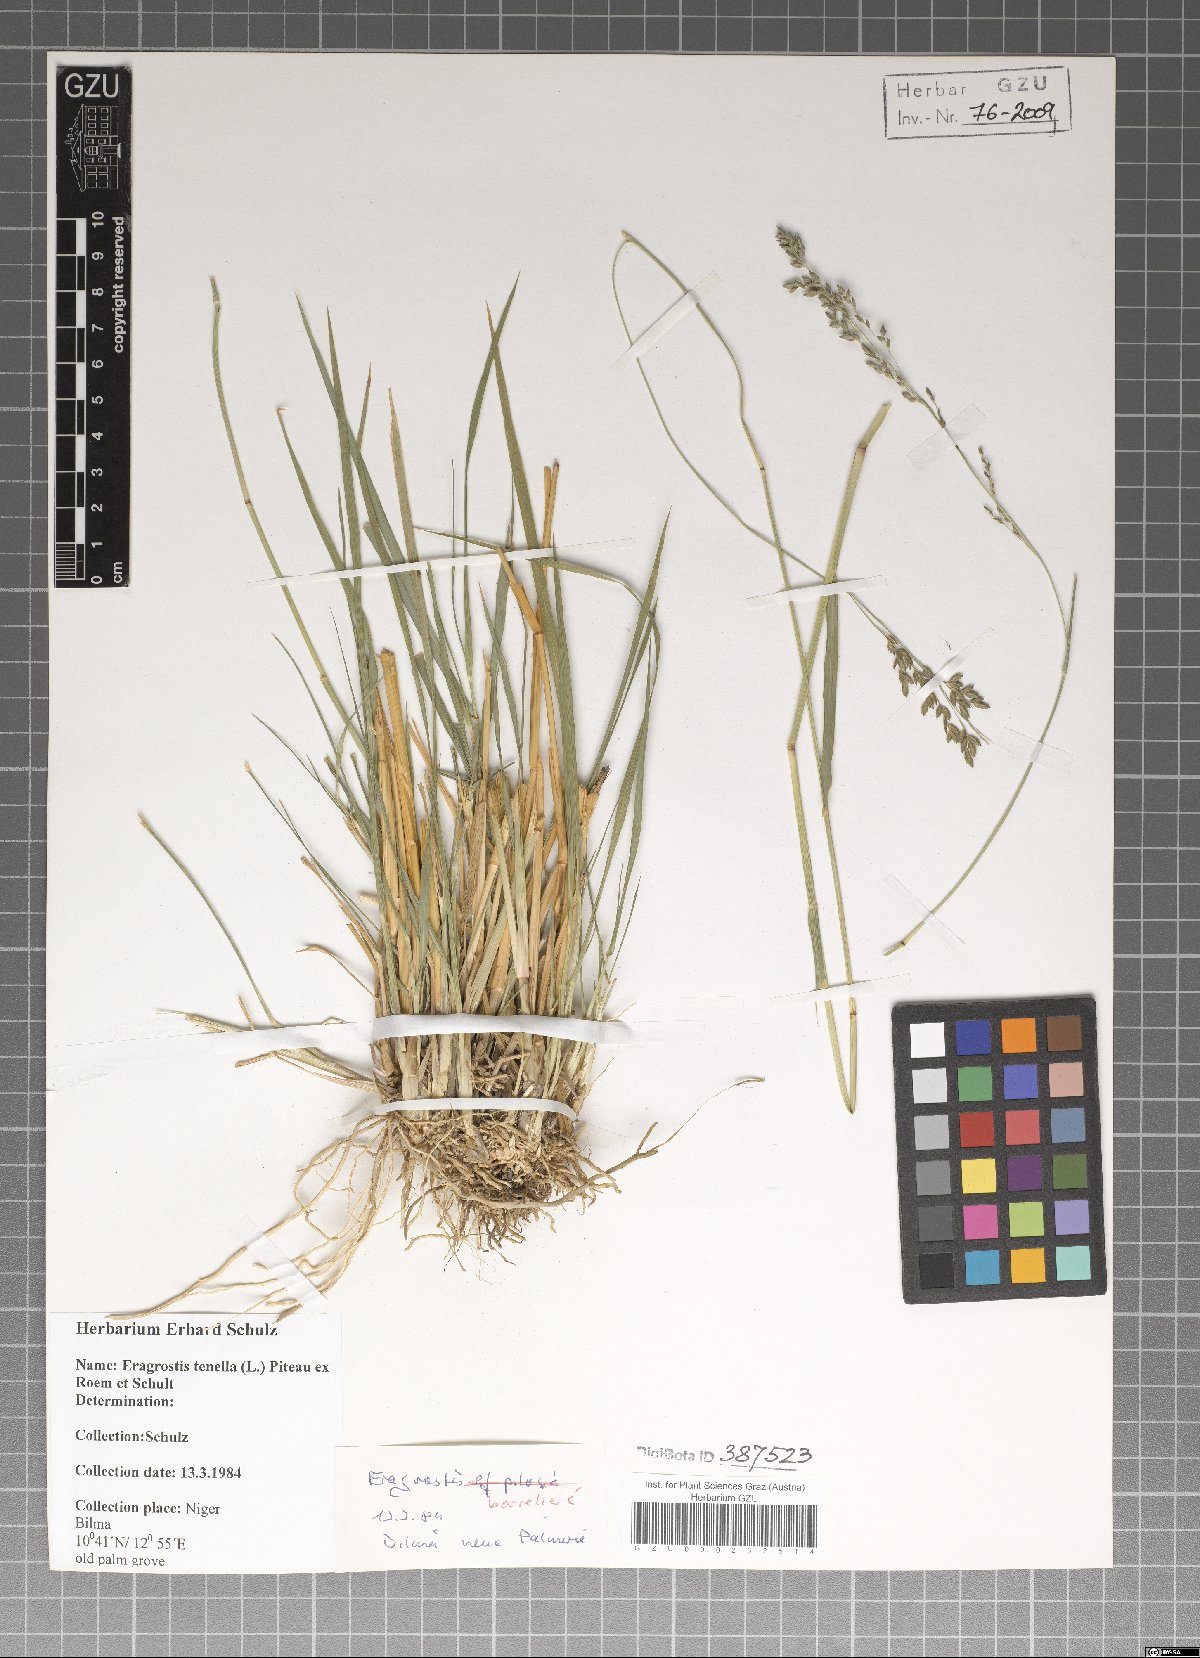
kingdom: Plantae
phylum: Tracheophyta
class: Liliopsida
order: Poales
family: Poaceae
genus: Eragrostis
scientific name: Eragrostis tenella
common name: Japanese lovegrass
